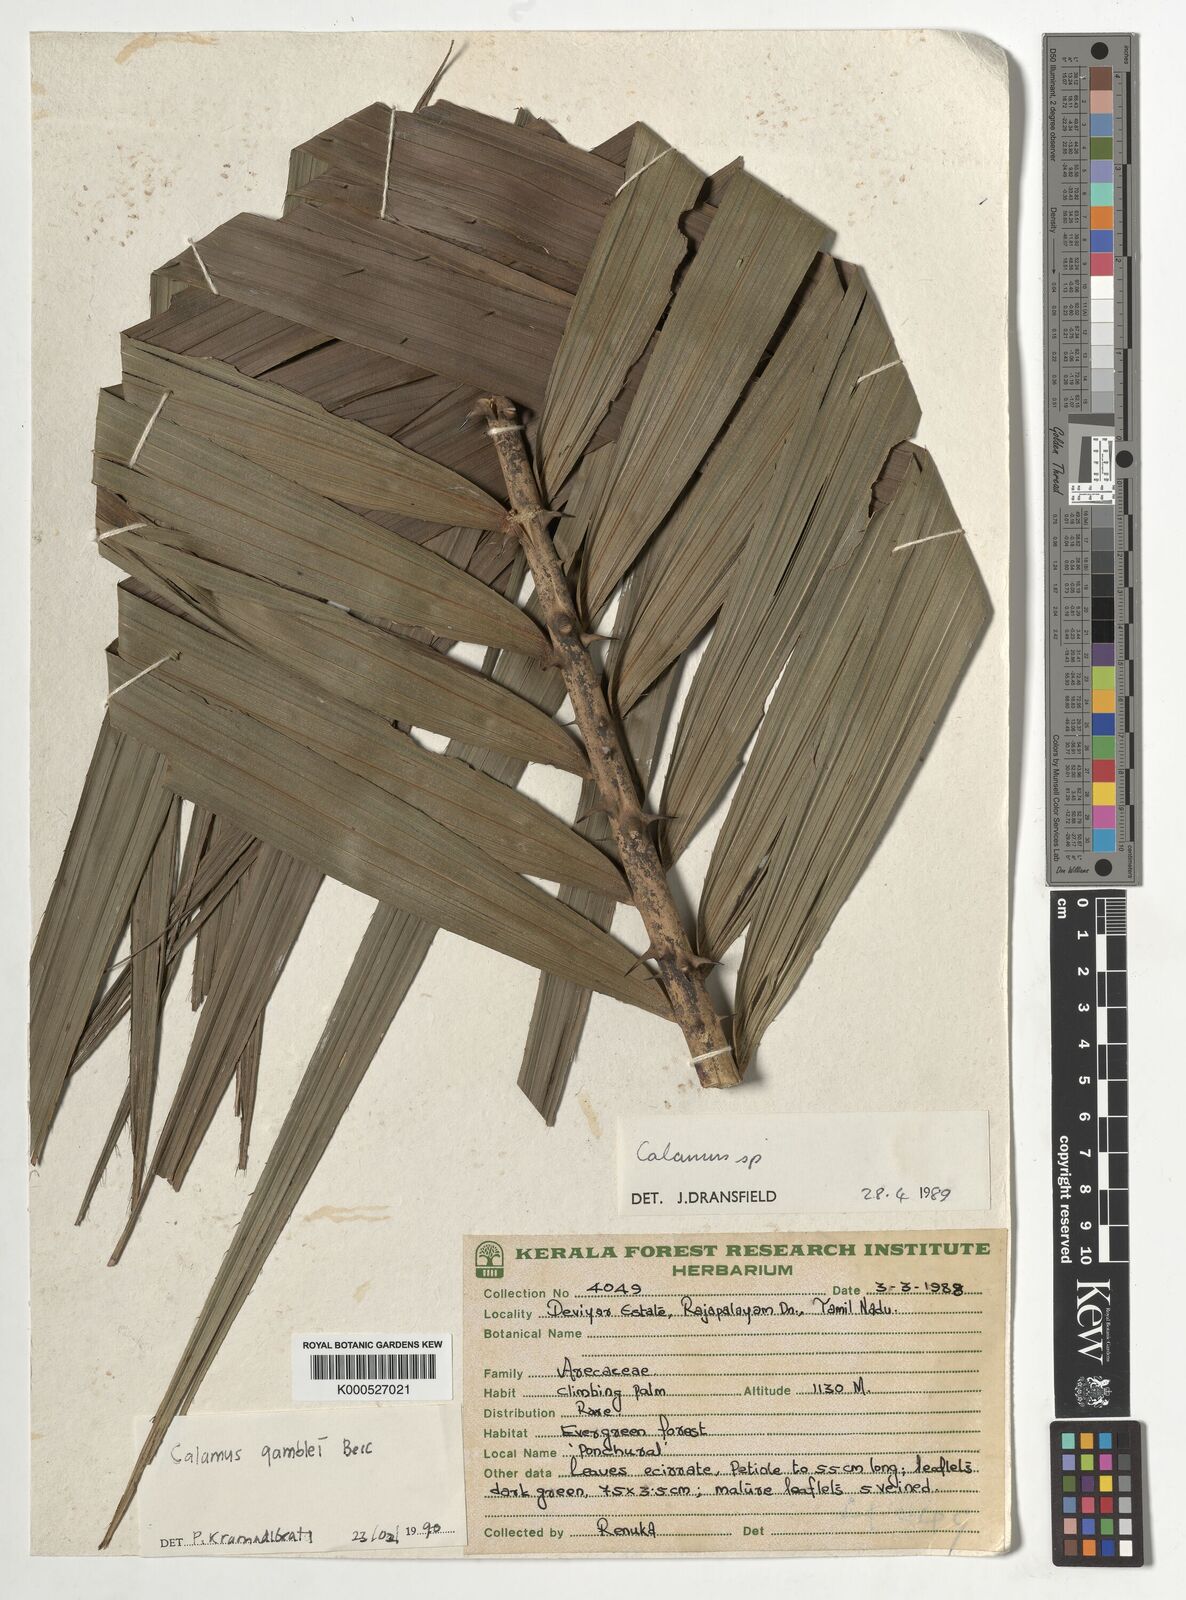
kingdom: Plantae
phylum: Tracheophyta
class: Liliopsida
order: Arecales
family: Arecaceae
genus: Calamus
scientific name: Calamus gamblei
